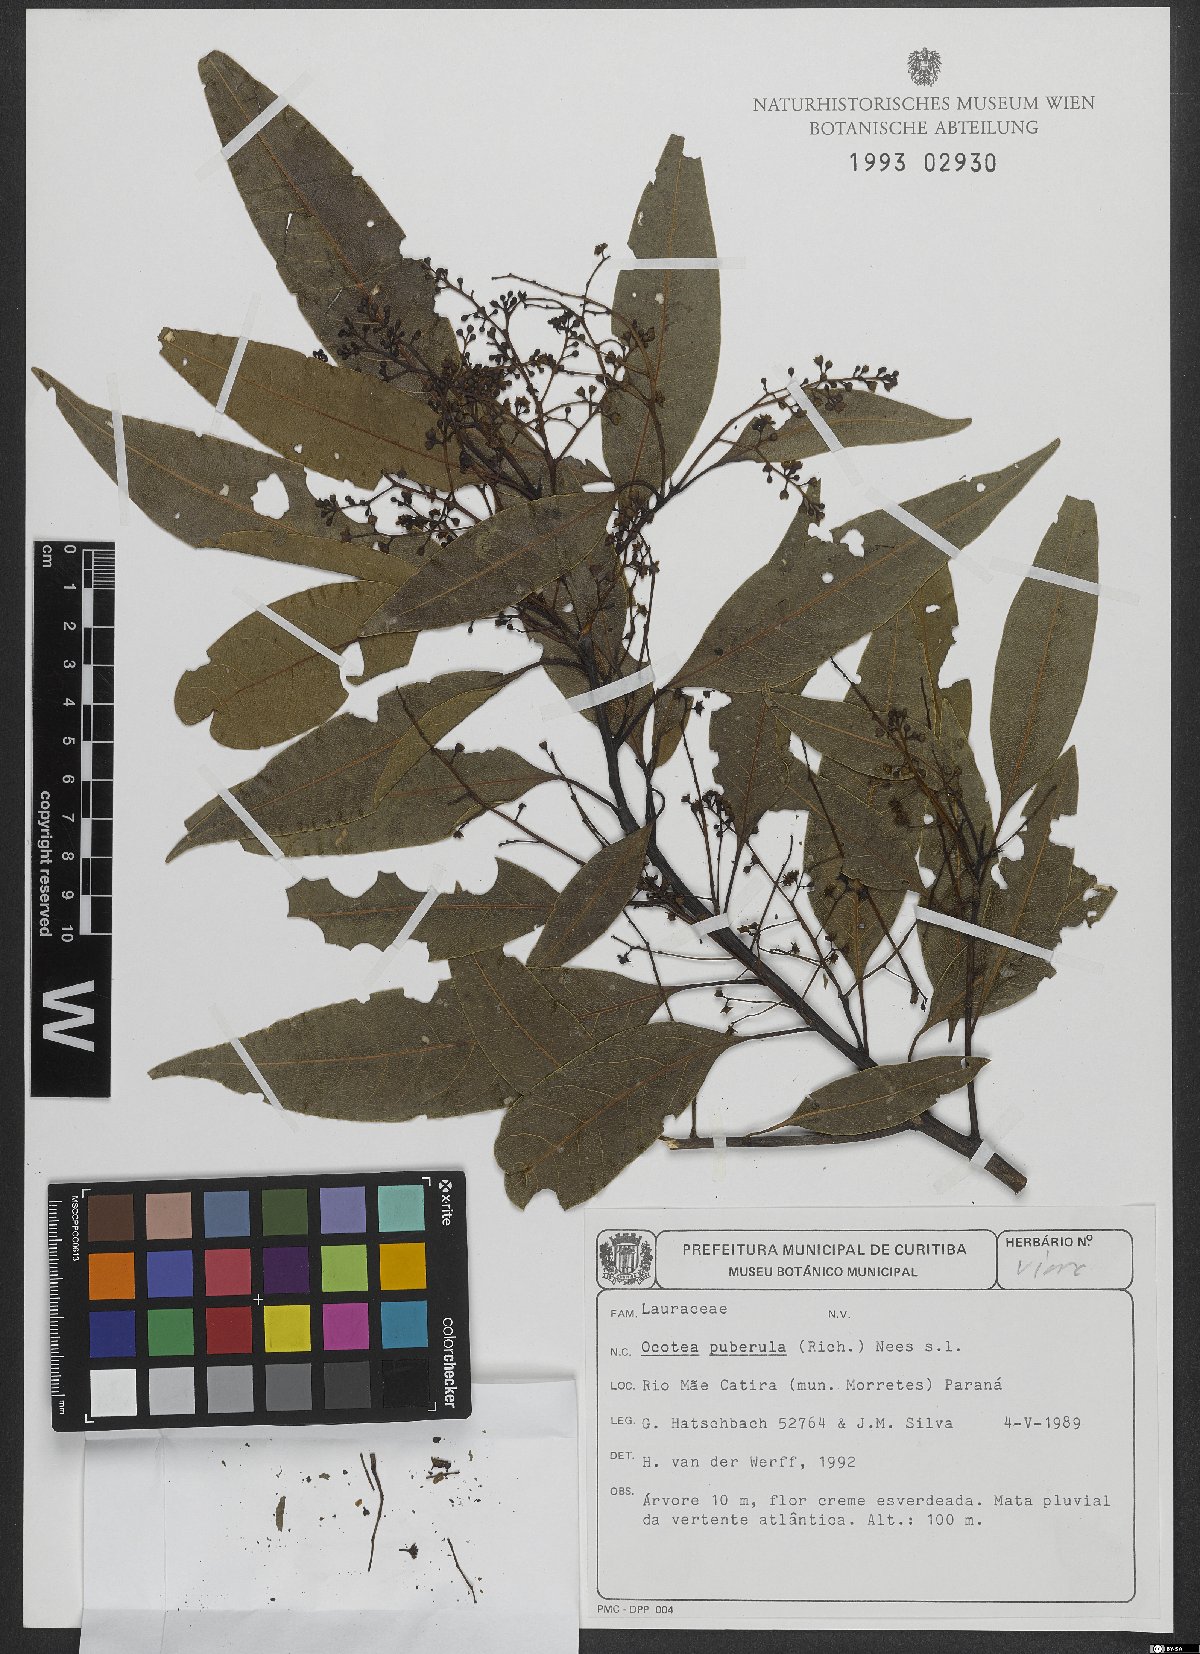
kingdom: Plantae
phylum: Tracheophyta
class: Magnoliopsida
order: Laurales
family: Lauraceae
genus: Ocotea
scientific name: Ocotea puberula
